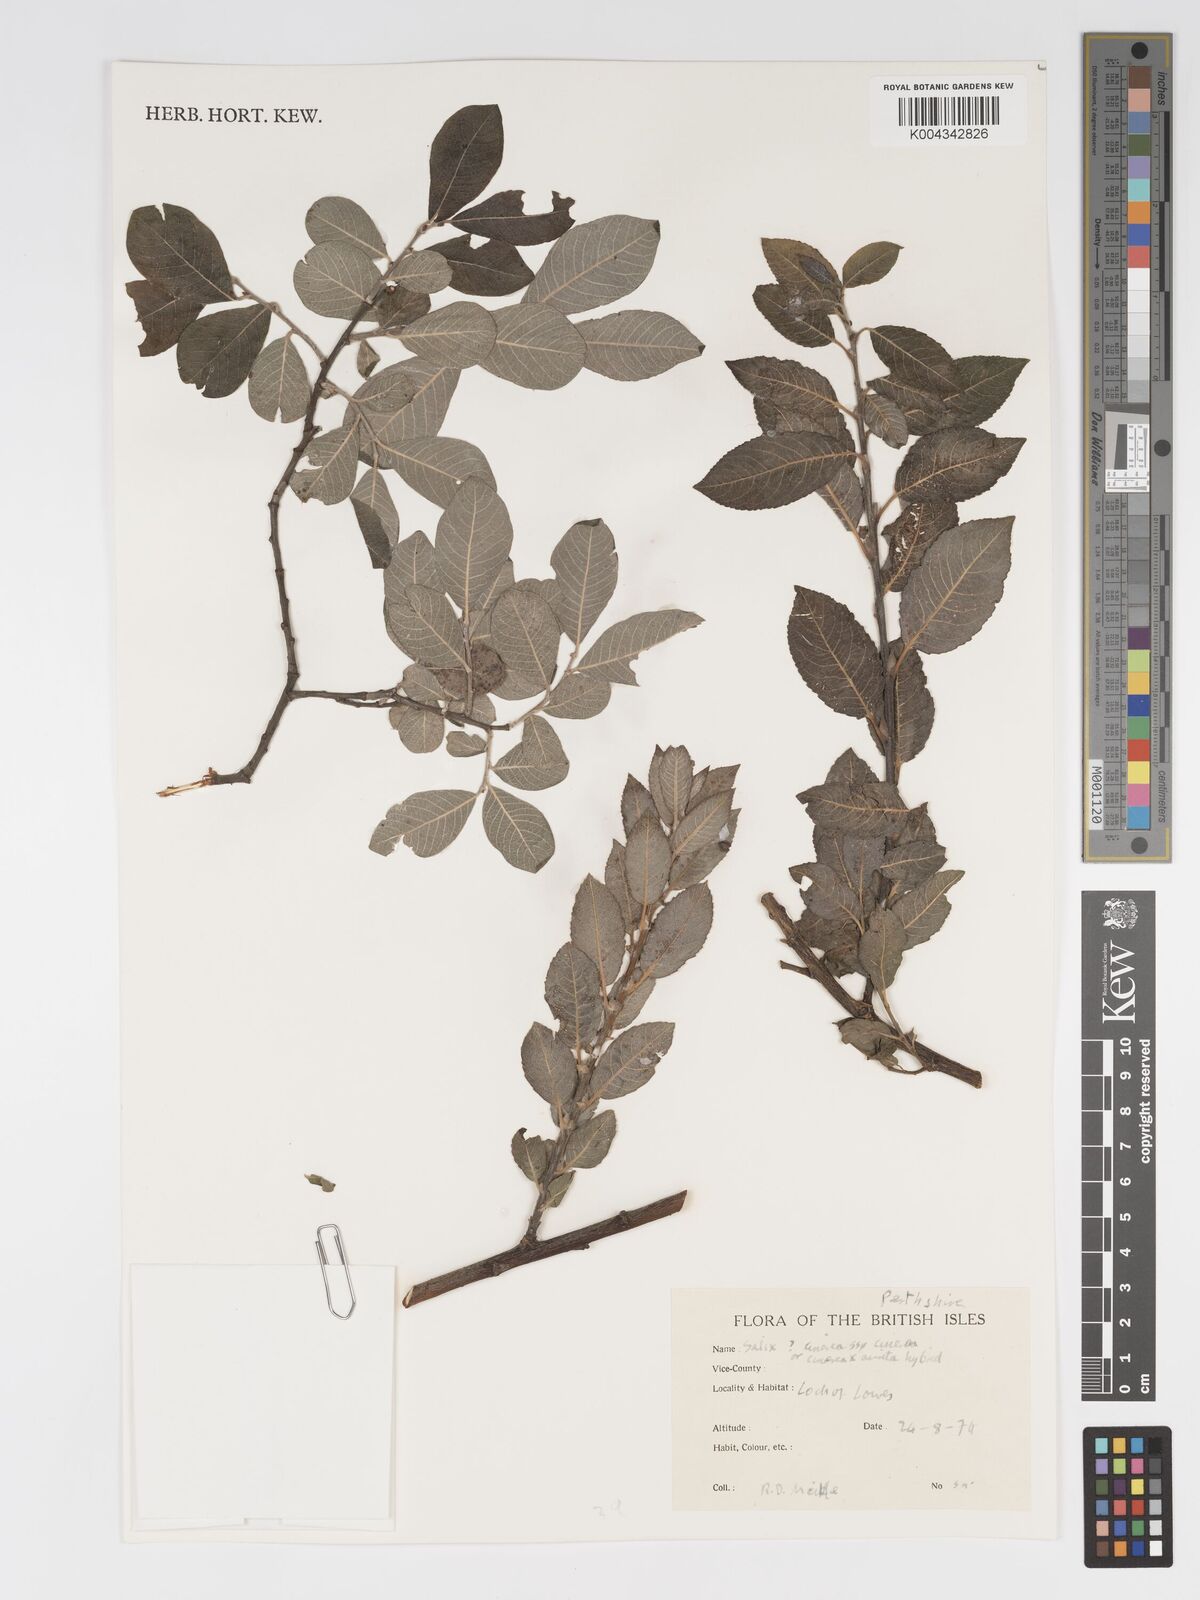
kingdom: Plantae
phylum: Tracheophyta
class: Magnoliopsida
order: Malpighiales
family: Salicaceae
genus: Salix
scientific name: Salix atrocinerea
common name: Rusty willow
